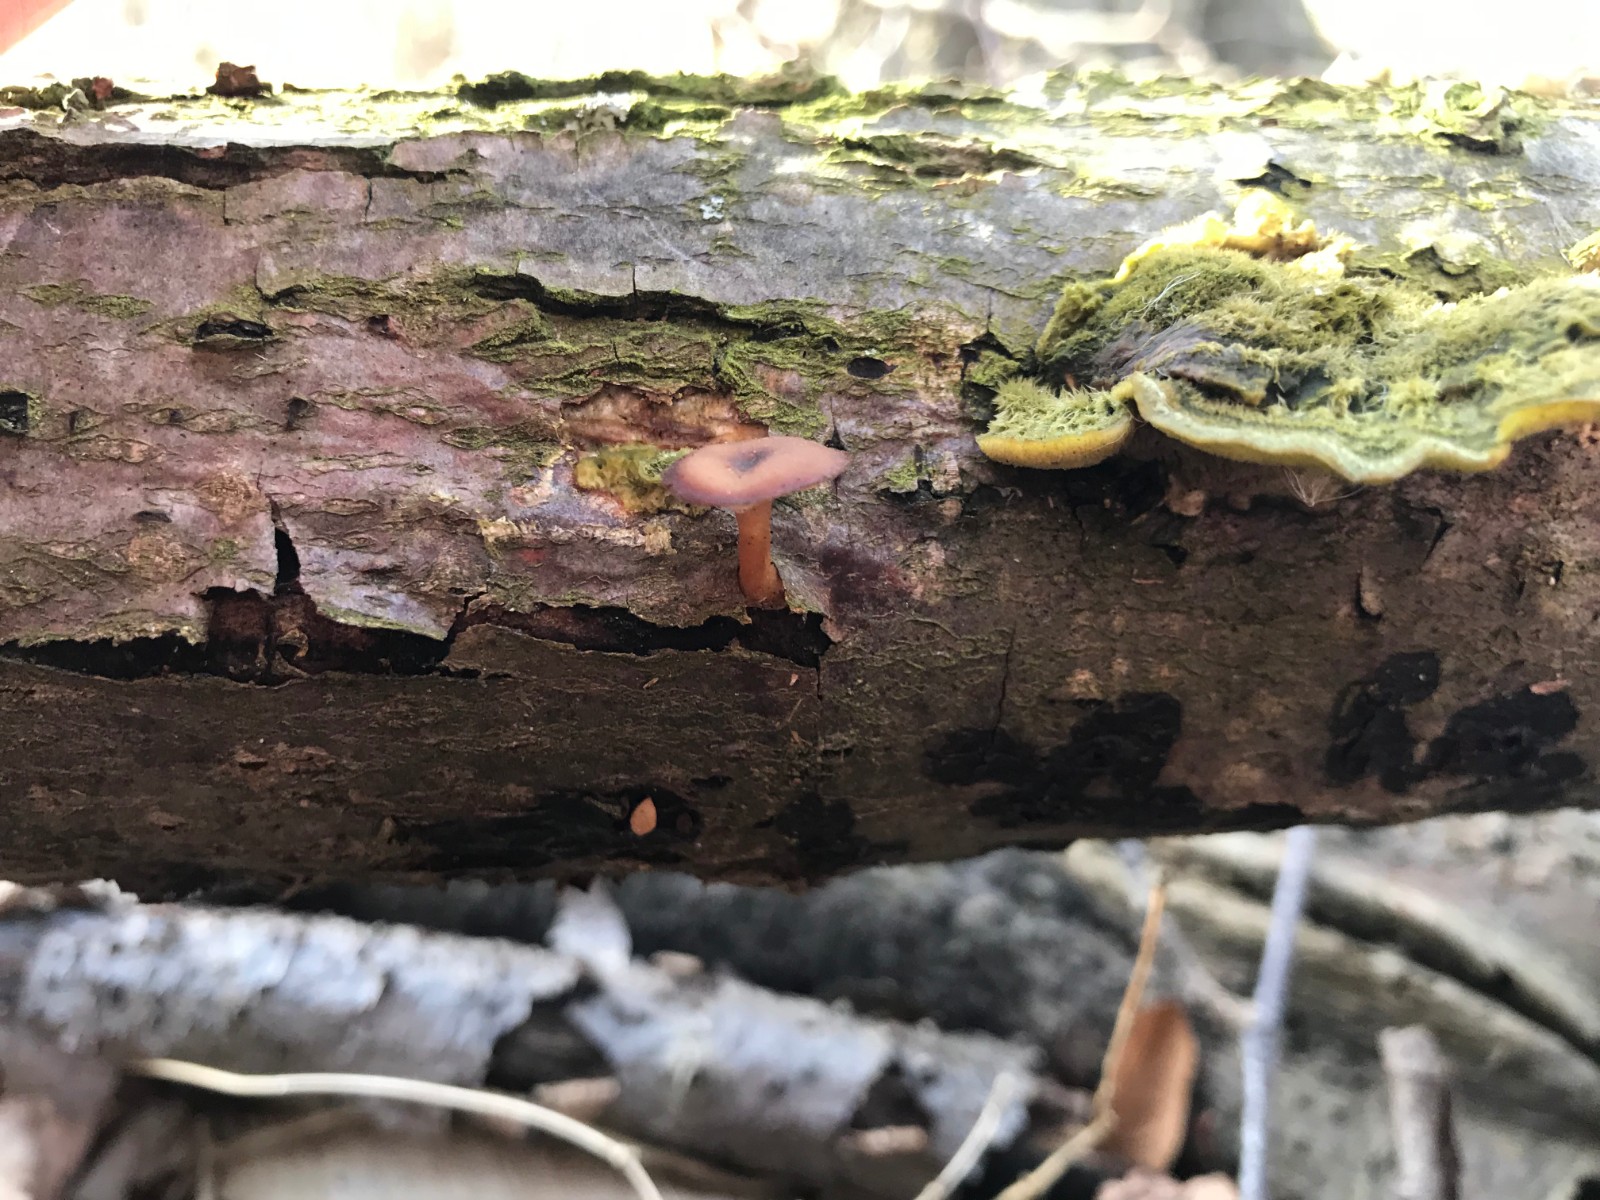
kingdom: Fungi
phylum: Basidiomycota
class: Agaricomycetes
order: Polyporales
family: Polyporaceae
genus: Lentinus
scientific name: Lentinus brumalis
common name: vinter-stilkporesvamp
